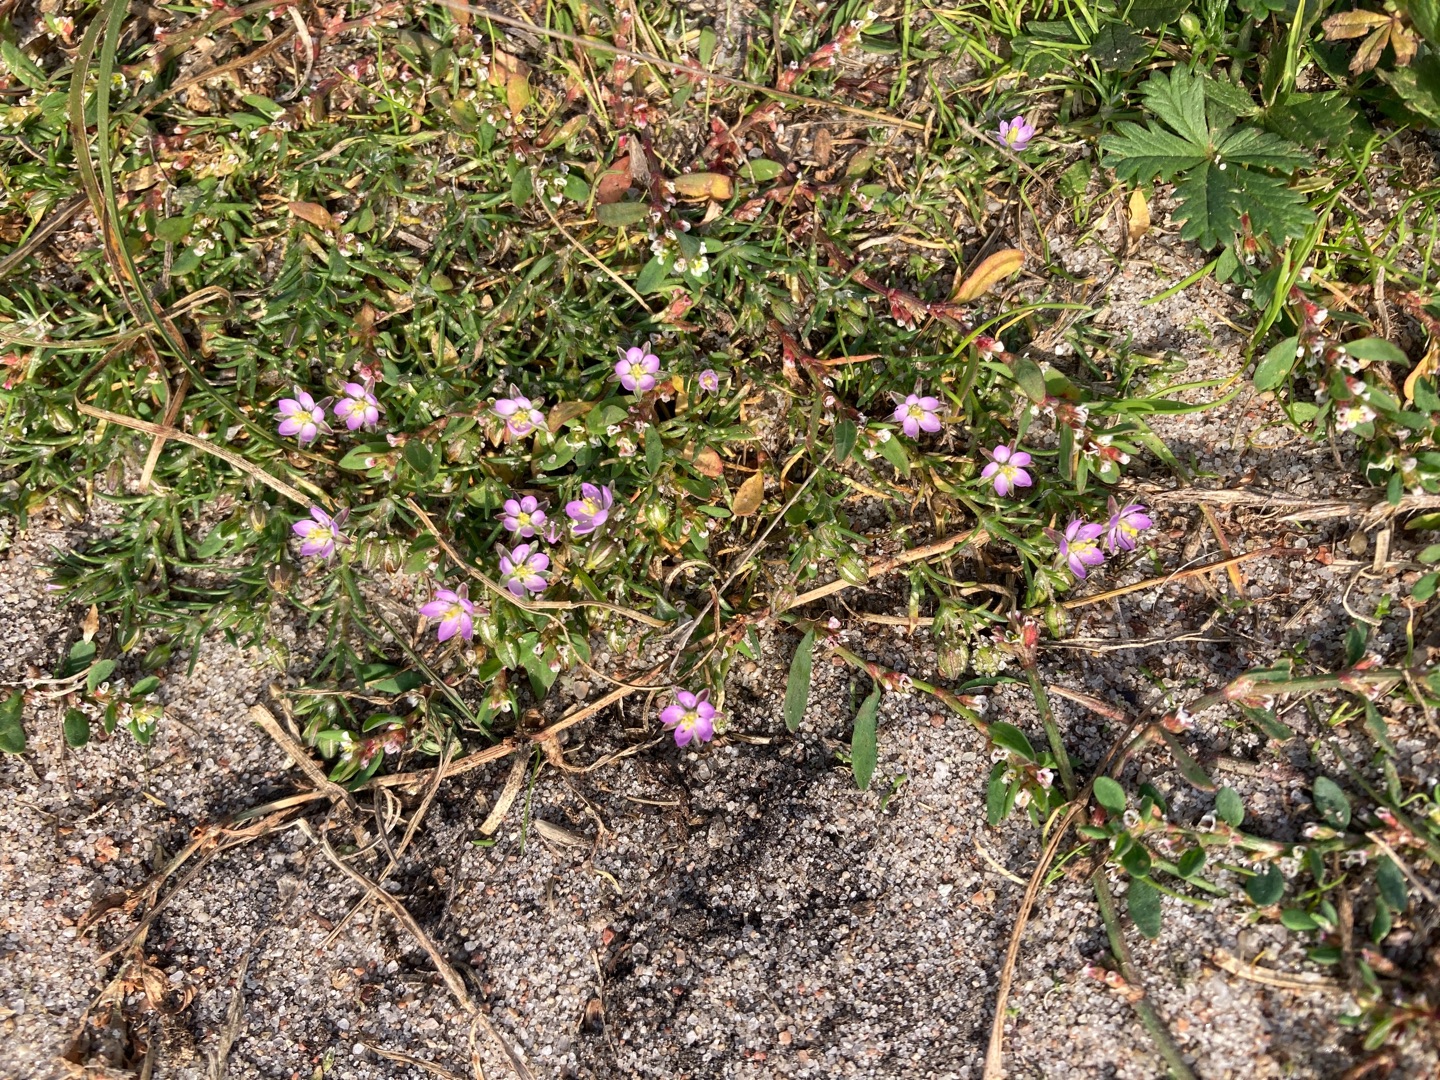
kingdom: Plantae
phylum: Tracheophyta
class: Magnoliopsida
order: Caryophyllales
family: Caryophyllaceae
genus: Spergularia
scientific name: Spergularia rubra
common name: Mark-hindeknæ
